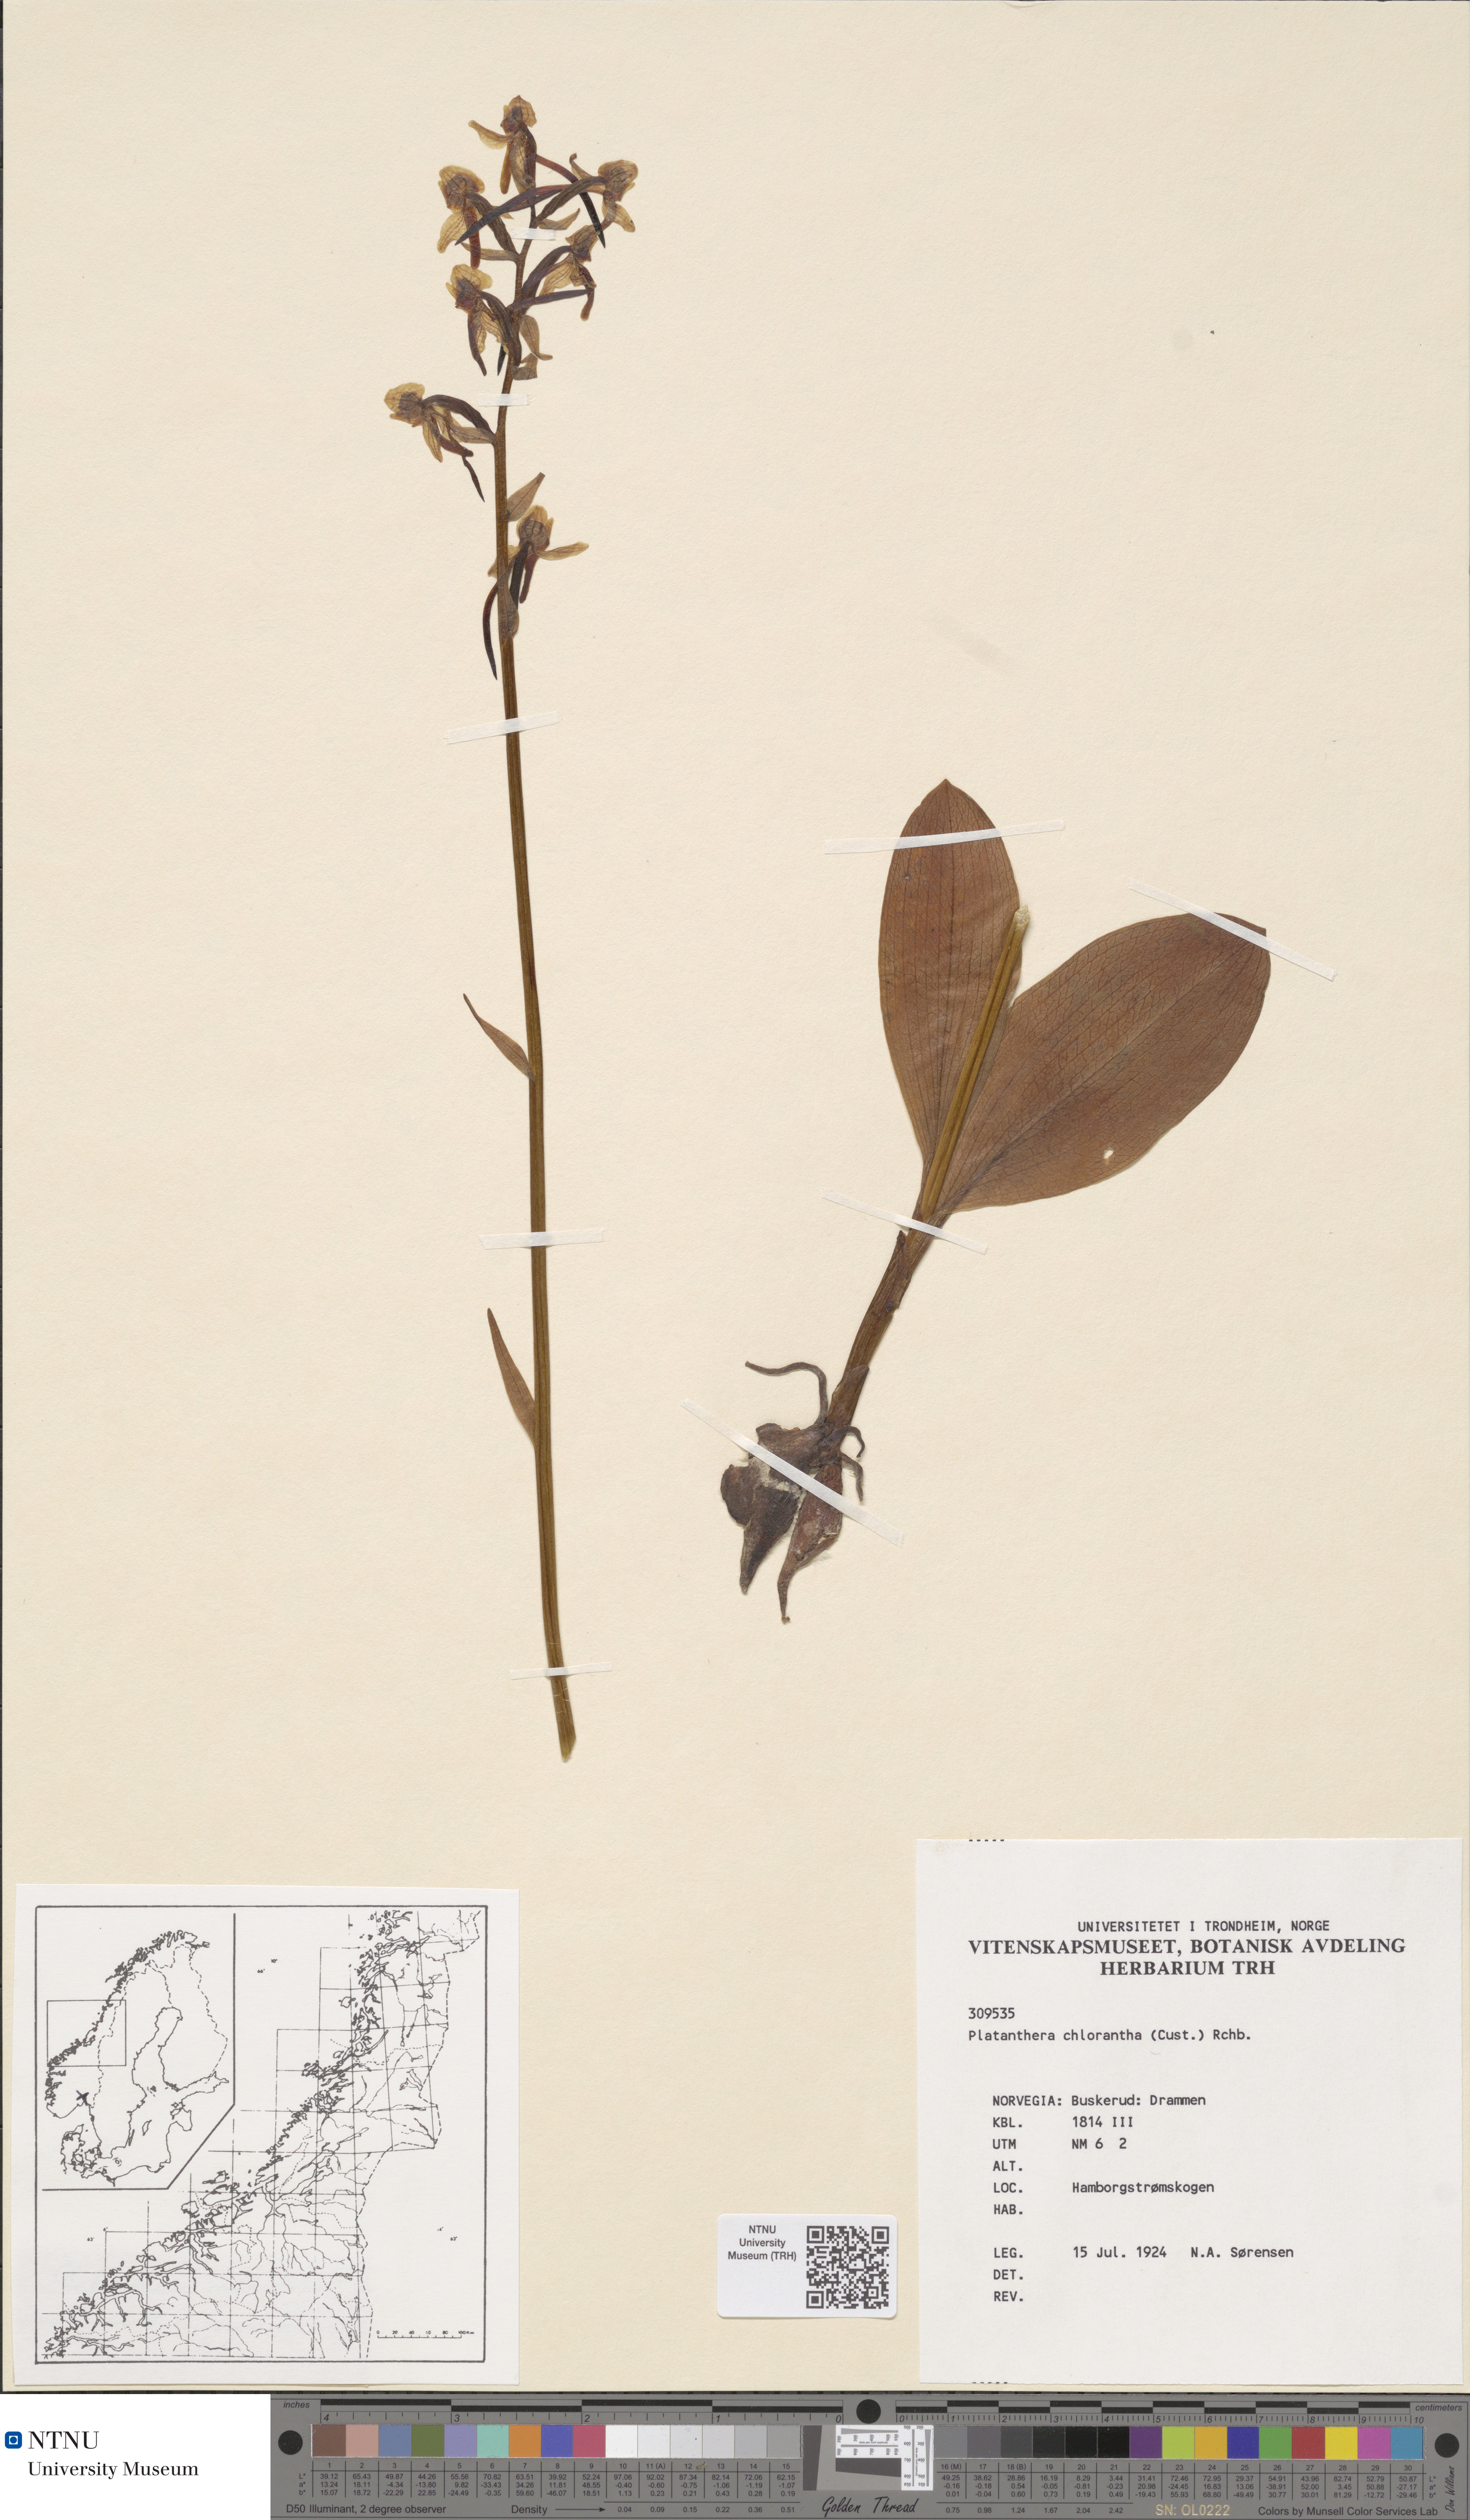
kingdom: Plantae
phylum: Tracheophyta
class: Liliopsida
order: Asparagales
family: Orchidaceae
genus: Platanthera
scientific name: Platanthera chlorantha
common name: Greater butterfly-orchid
